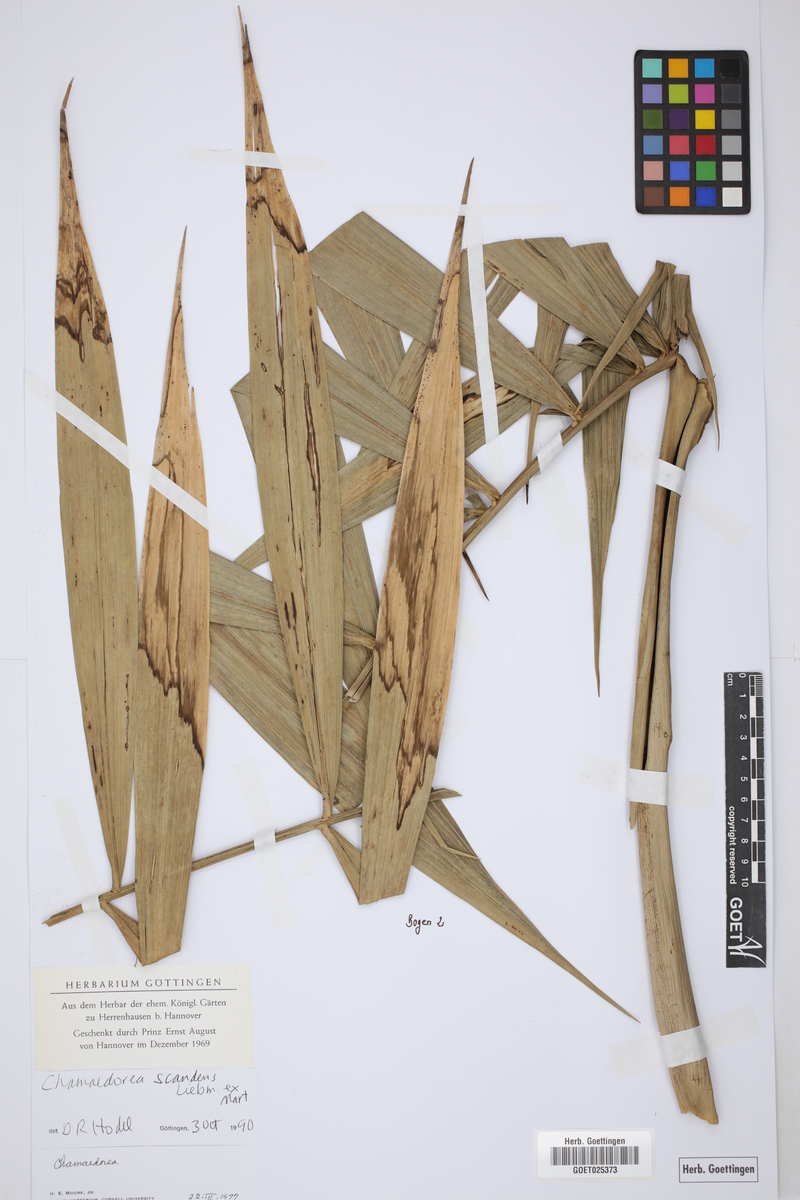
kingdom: Plantae
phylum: Tracheophyta
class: Liliopsida
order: Arecales
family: Arecaceae
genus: Chamaedorea
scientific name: Chamaedorea elatior
